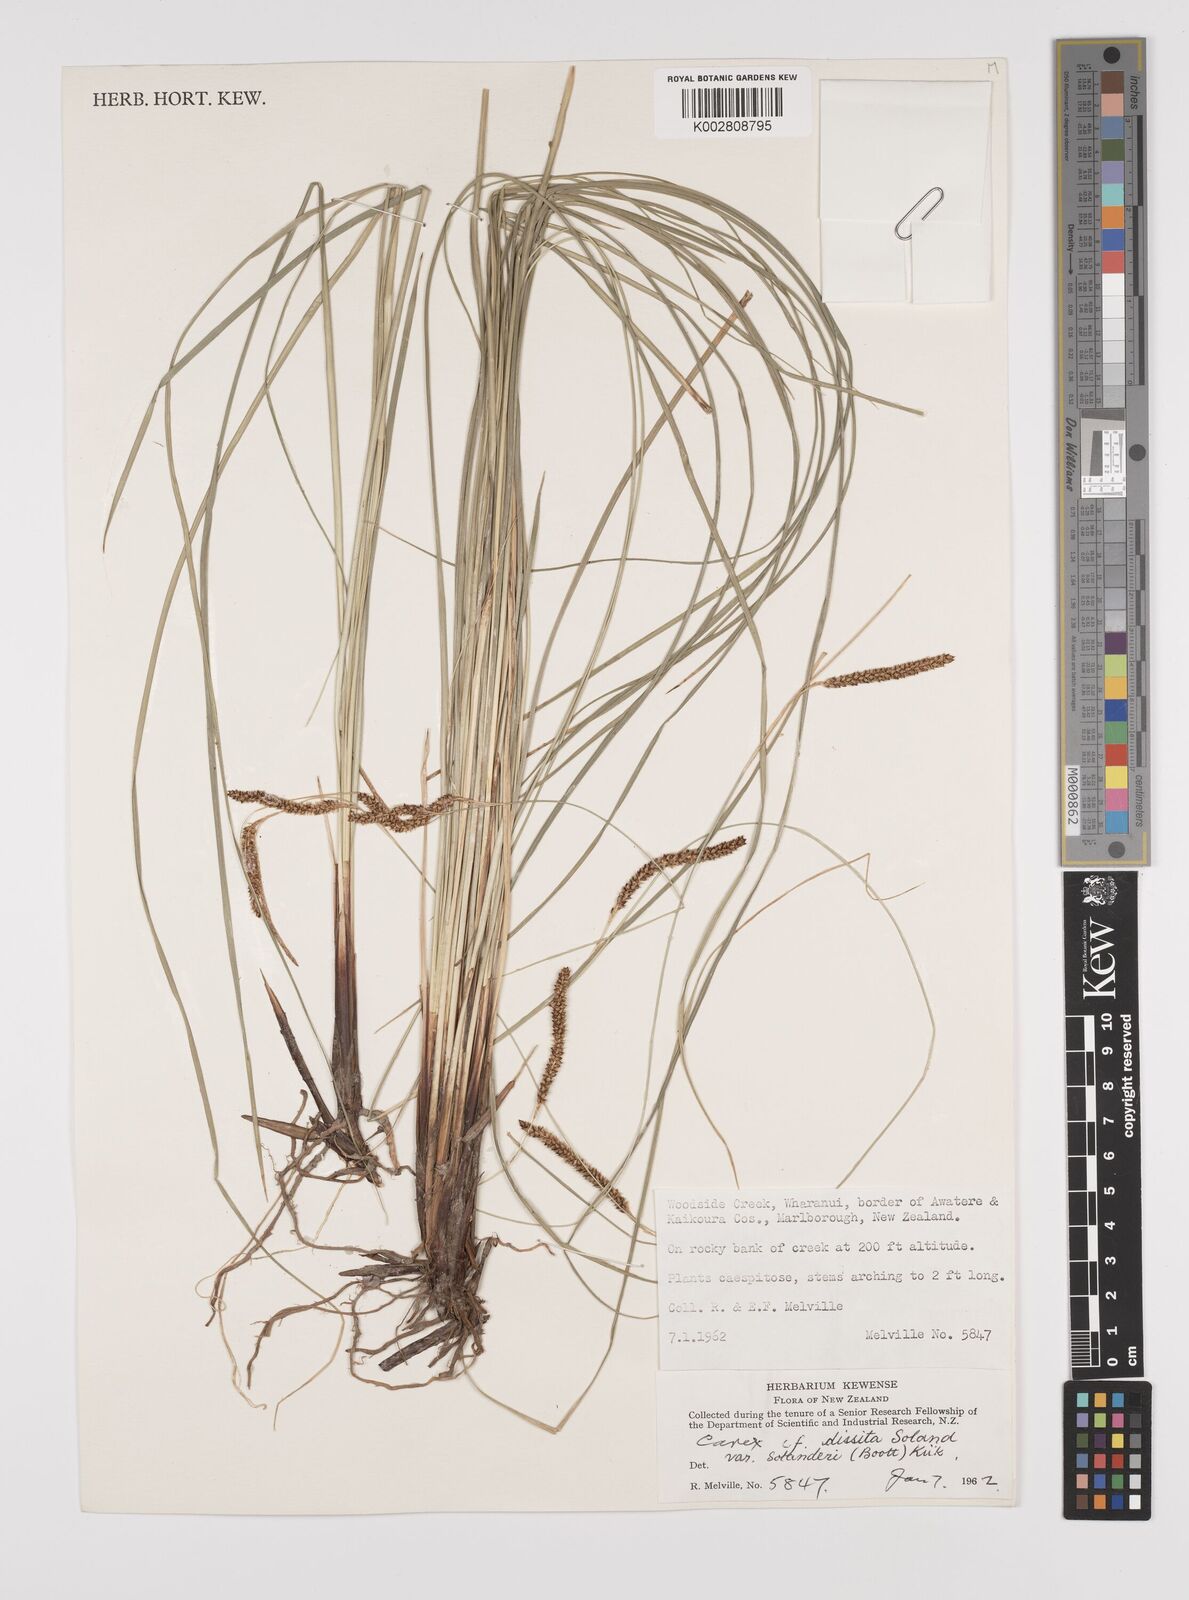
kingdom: Plantae
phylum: Tracheophyta
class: Liliopsida
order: Poales
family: Cyperaceae
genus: Carex
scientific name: Carex dissita
